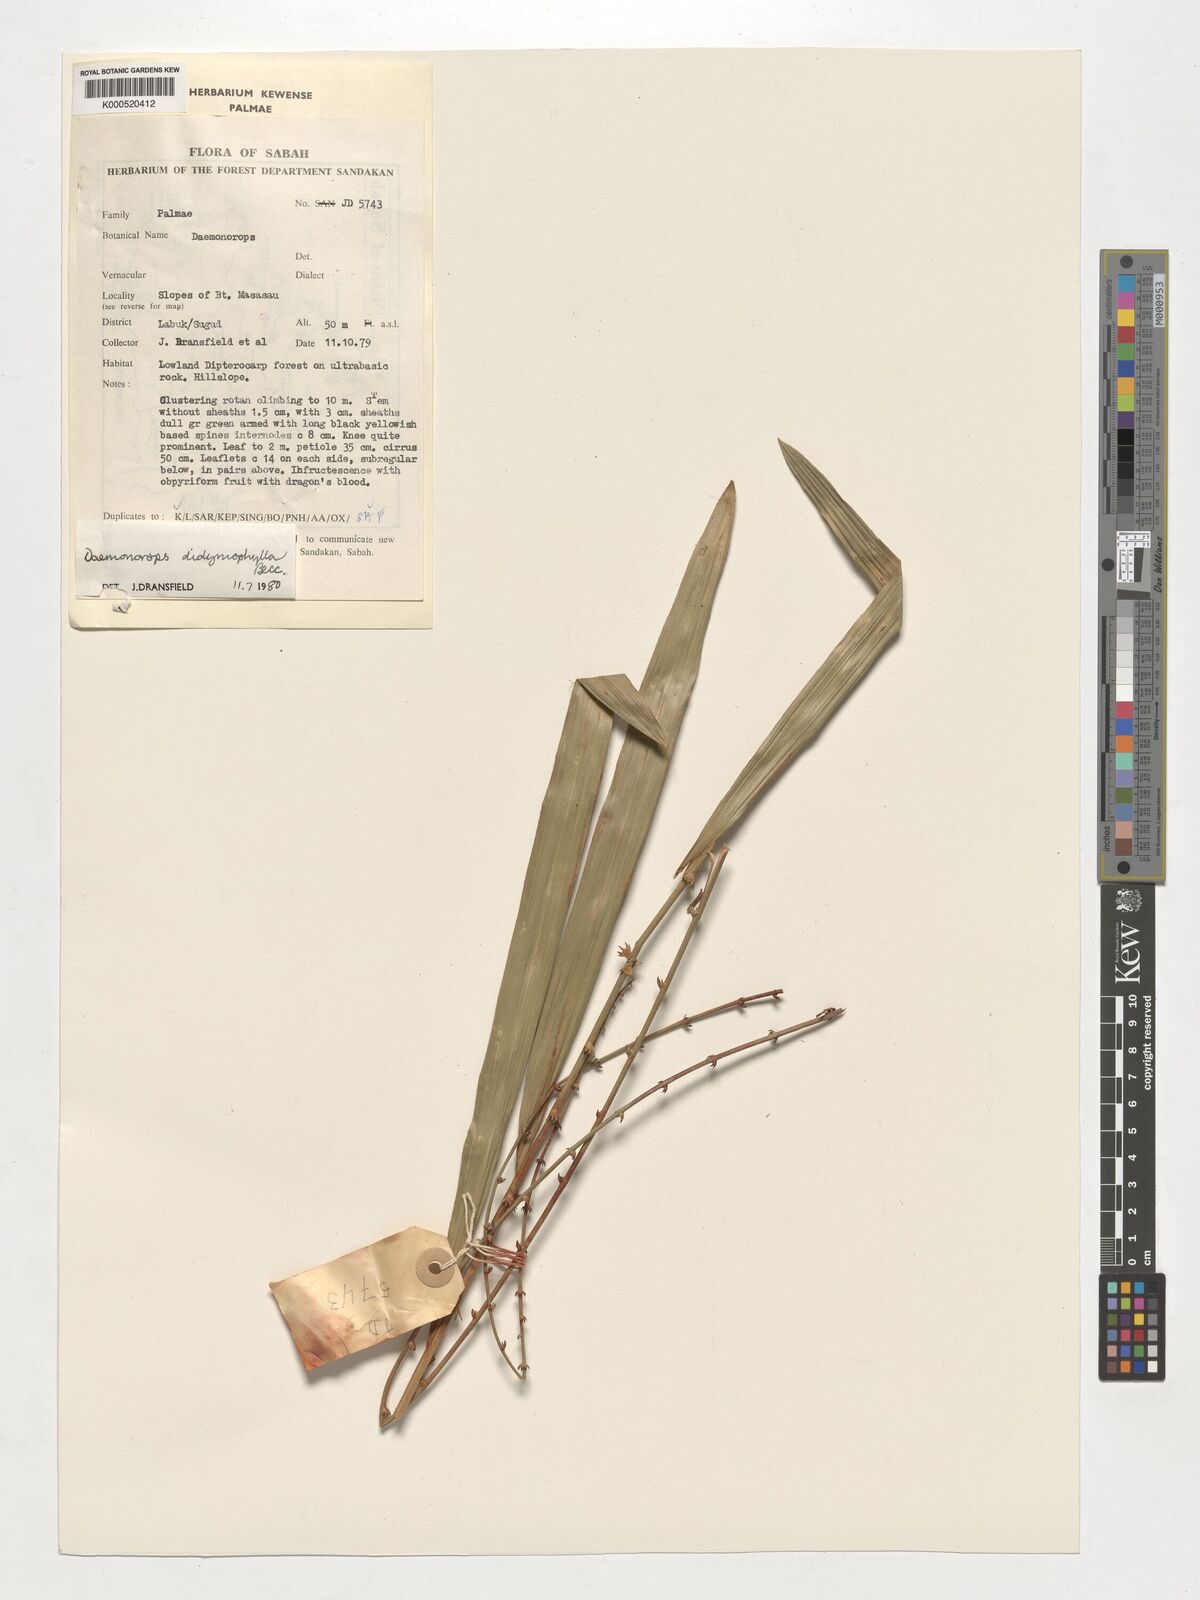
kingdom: Plantae
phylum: Tracheophyta
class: Liliopsida
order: Arecales
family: Arecaceae
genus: Calamus
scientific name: Calamus gracilipes
